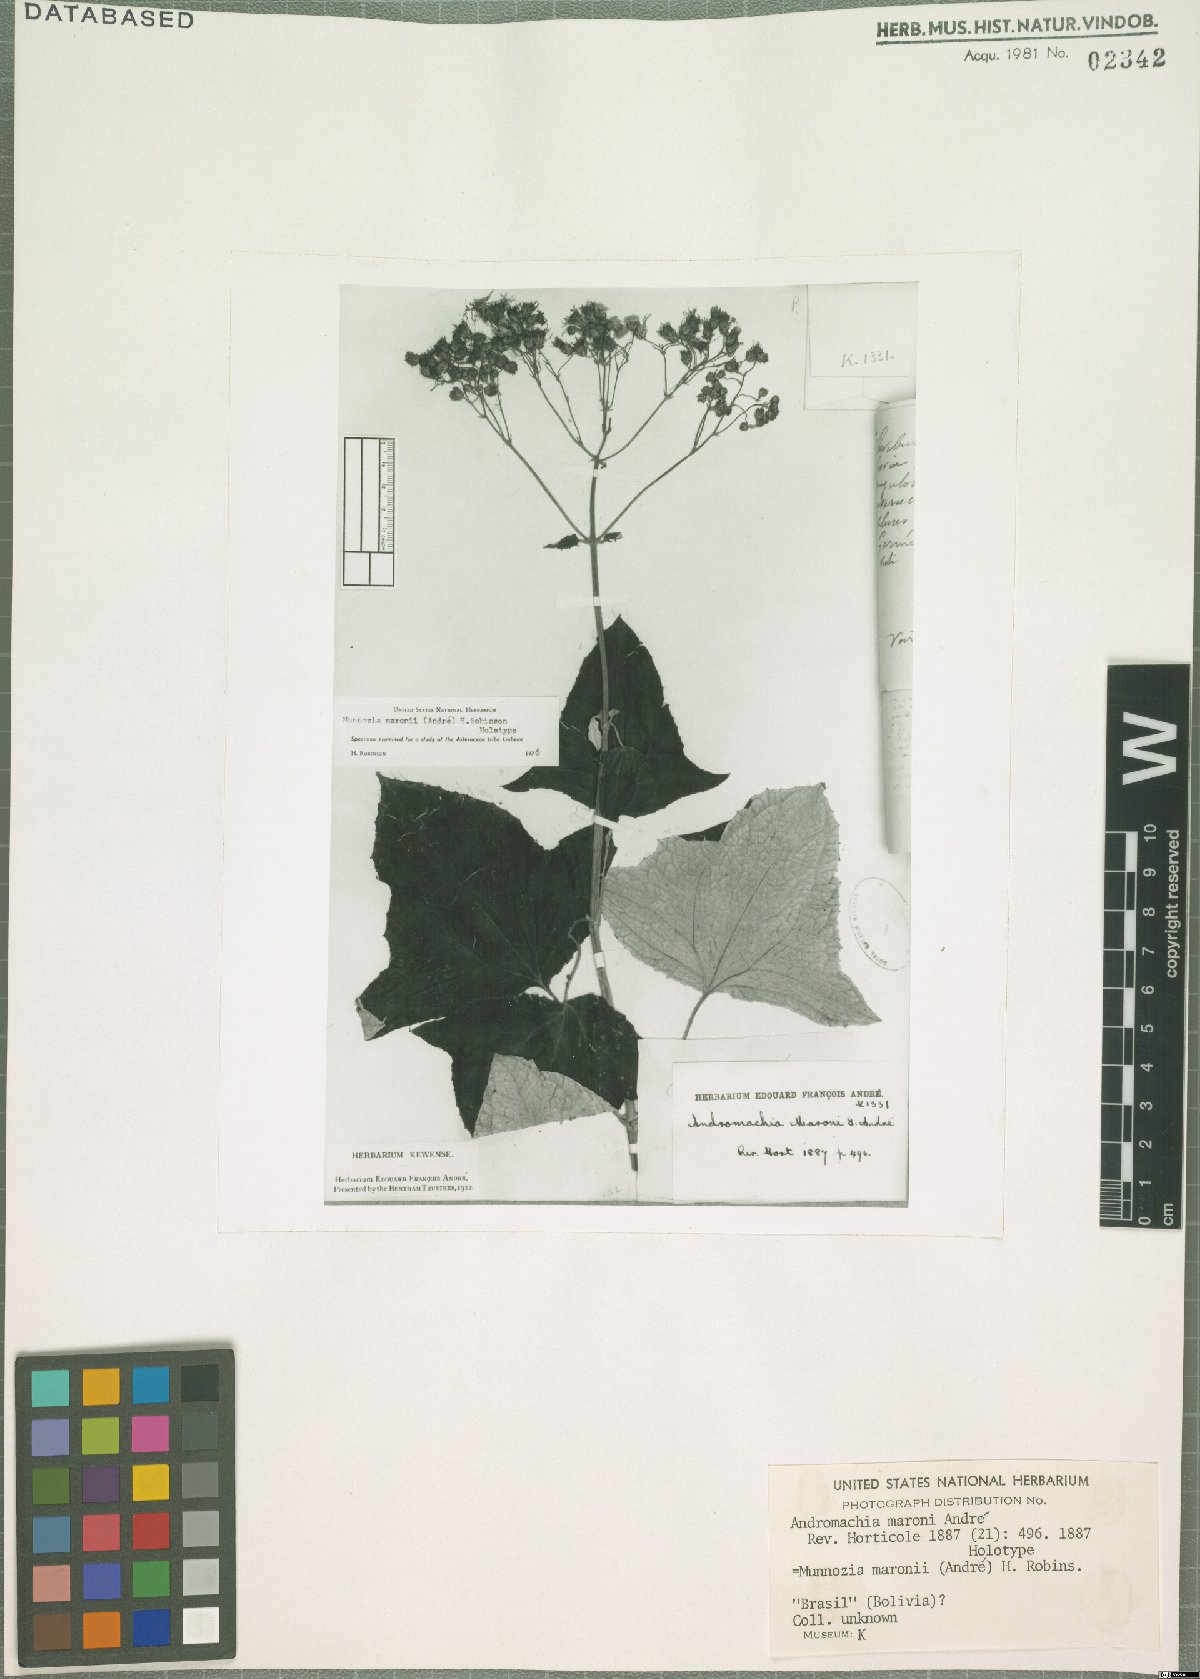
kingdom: Plantae
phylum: Tracheophyta
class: Magnoliopsida
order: Asterales
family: Asteraceae
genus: Munnozia
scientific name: Munnozia maronii
